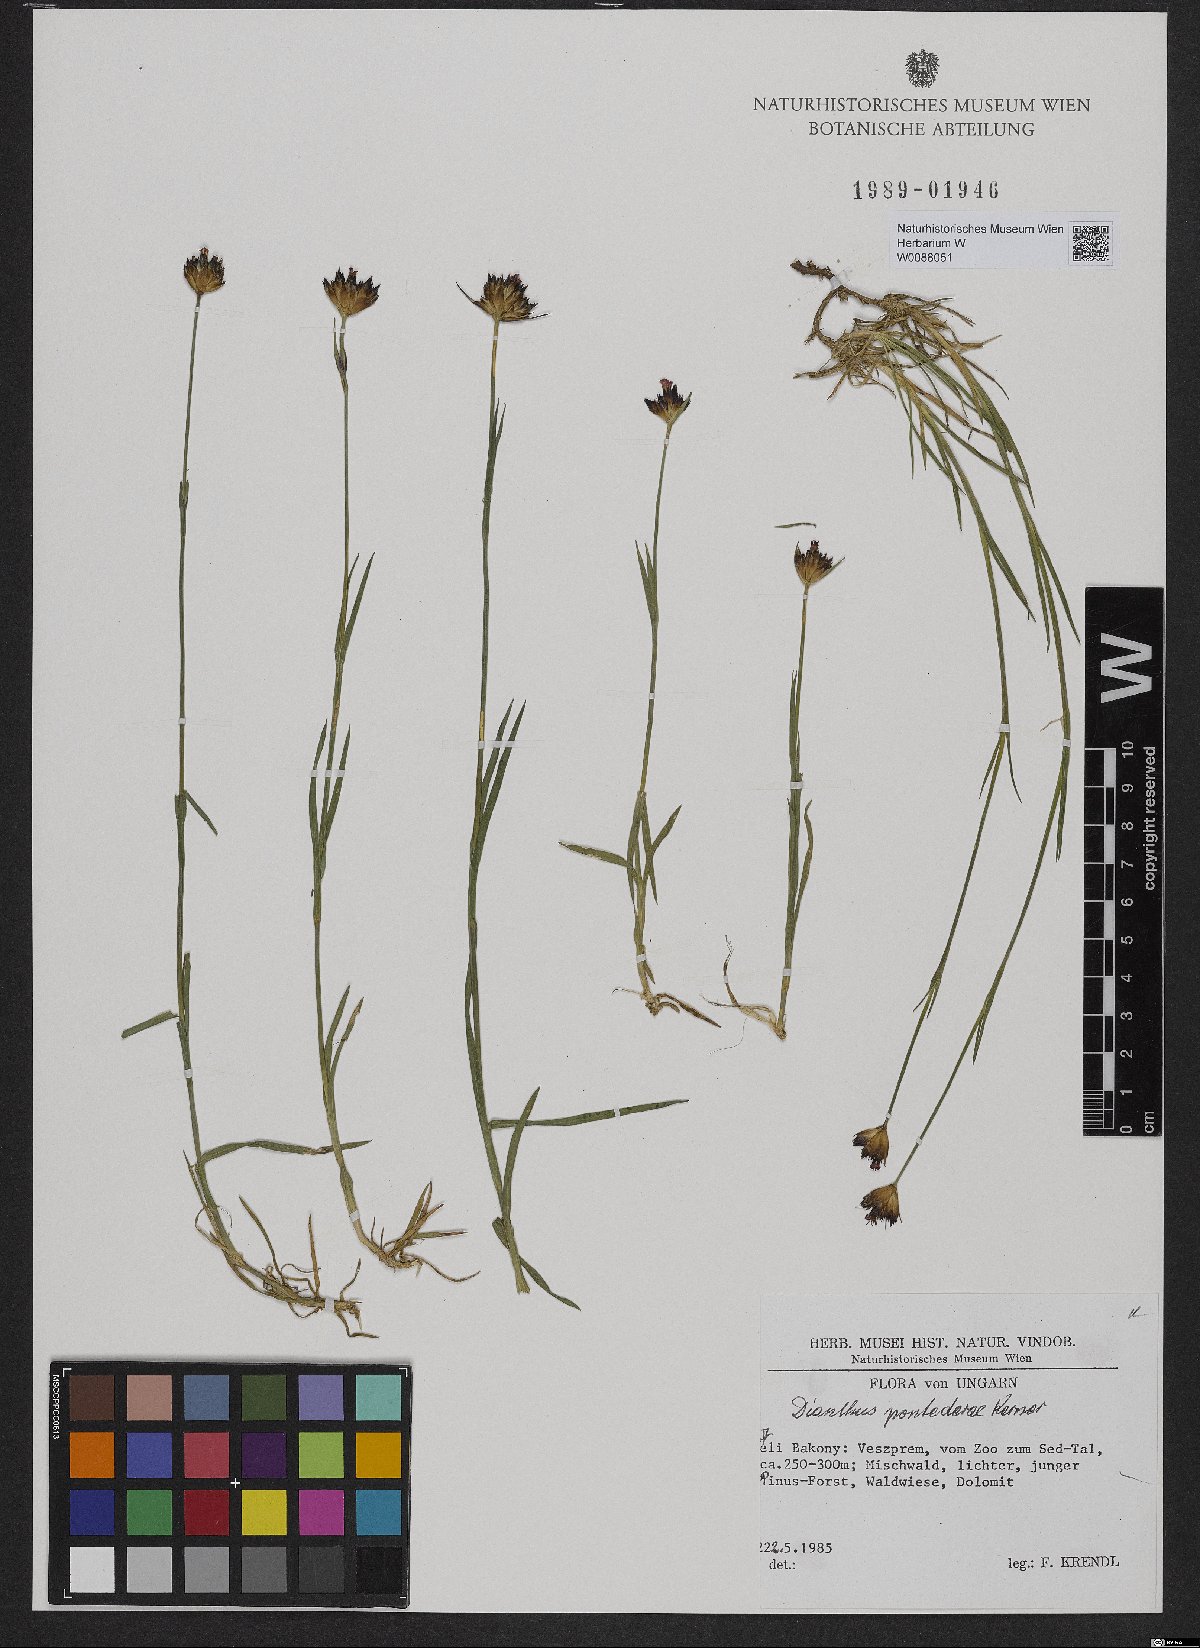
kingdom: Plantae
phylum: Tracheophyta
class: Magnoliopsida
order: Caryophyllales
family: Caryophyllaceae
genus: Dianthus
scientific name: Dianthus pontederae
